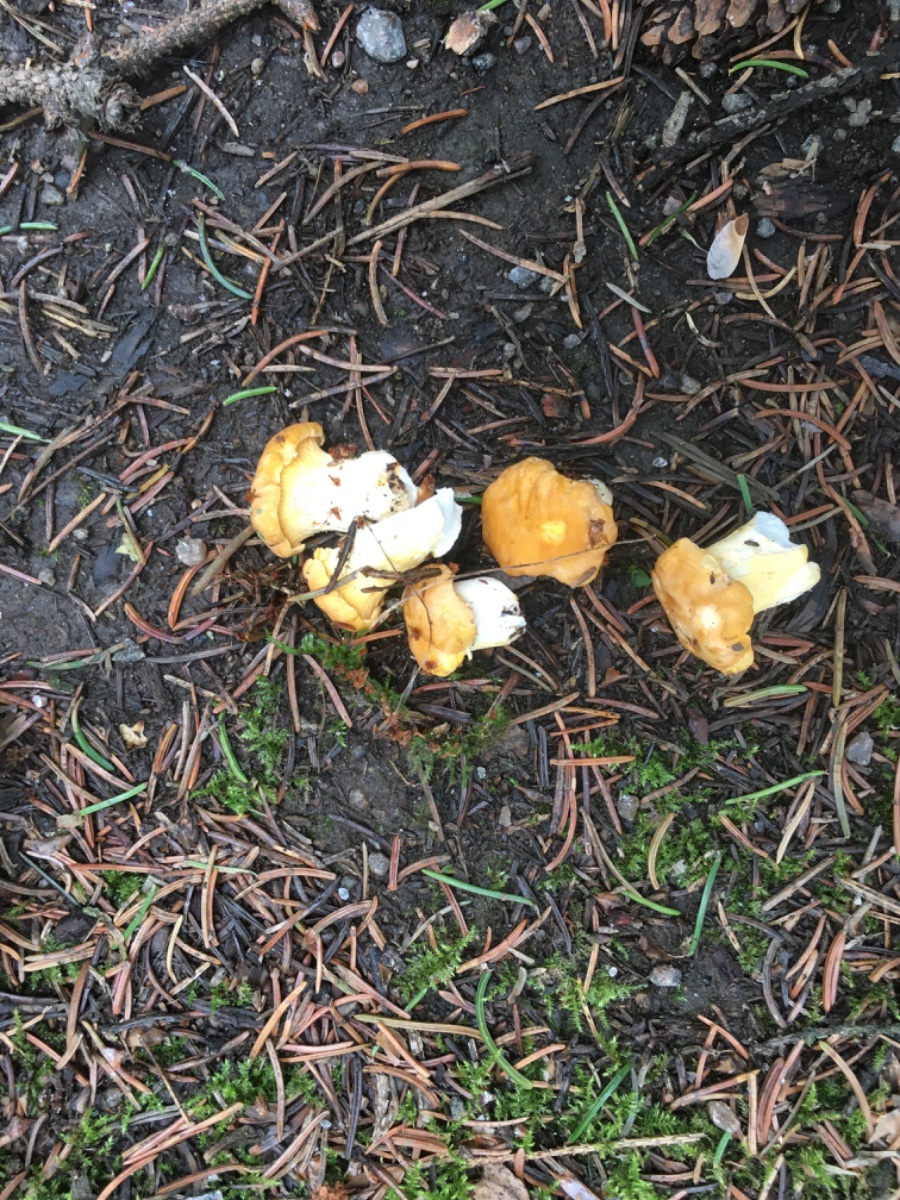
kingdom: Fungi
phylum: Basidiomycota
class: Agaricomycetes
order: Cantharellales
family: Hydnaceae
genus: Cantharellus
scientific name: Cantharellus cibarius
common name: almindelig kantarel
